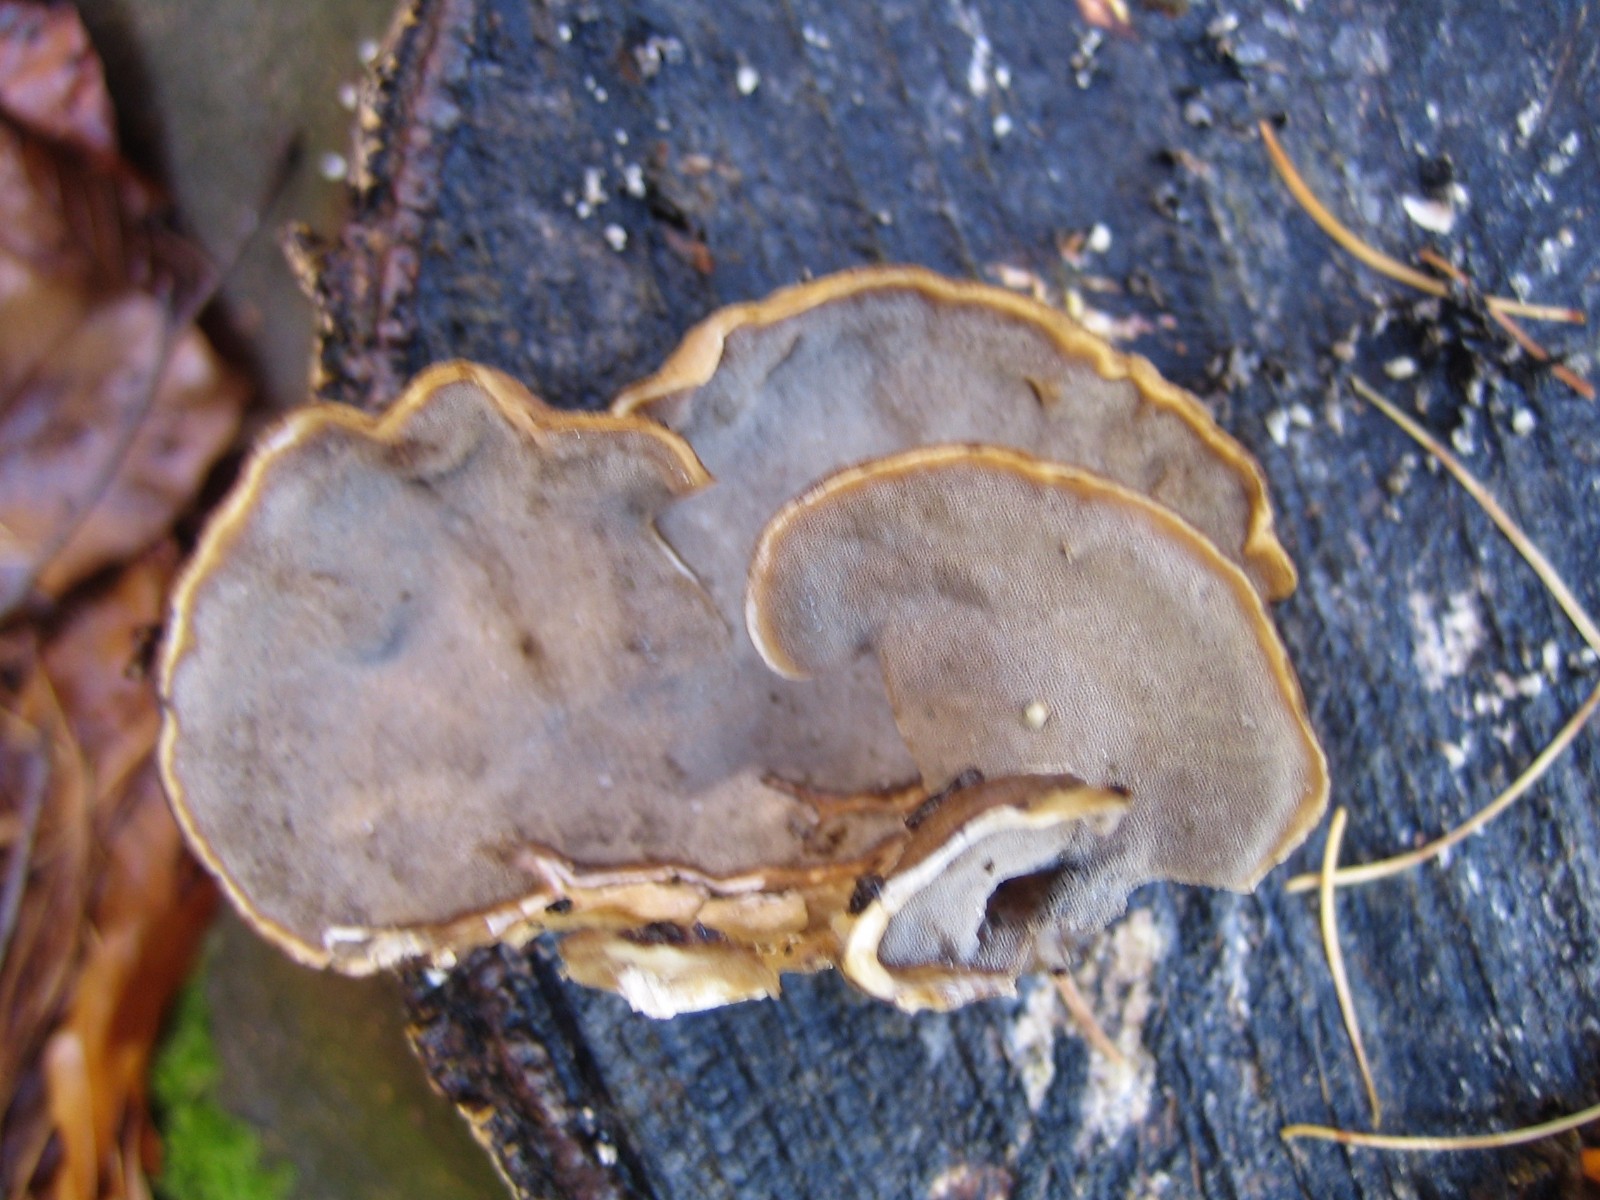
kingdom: Fungi
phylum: Basidiomycota
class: Agaricomycetes
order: Polyporales
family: Phanerochaetaceae
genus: Bjerkandera
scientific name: Bjerkandera adusta
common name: sveden sodporesvamp
